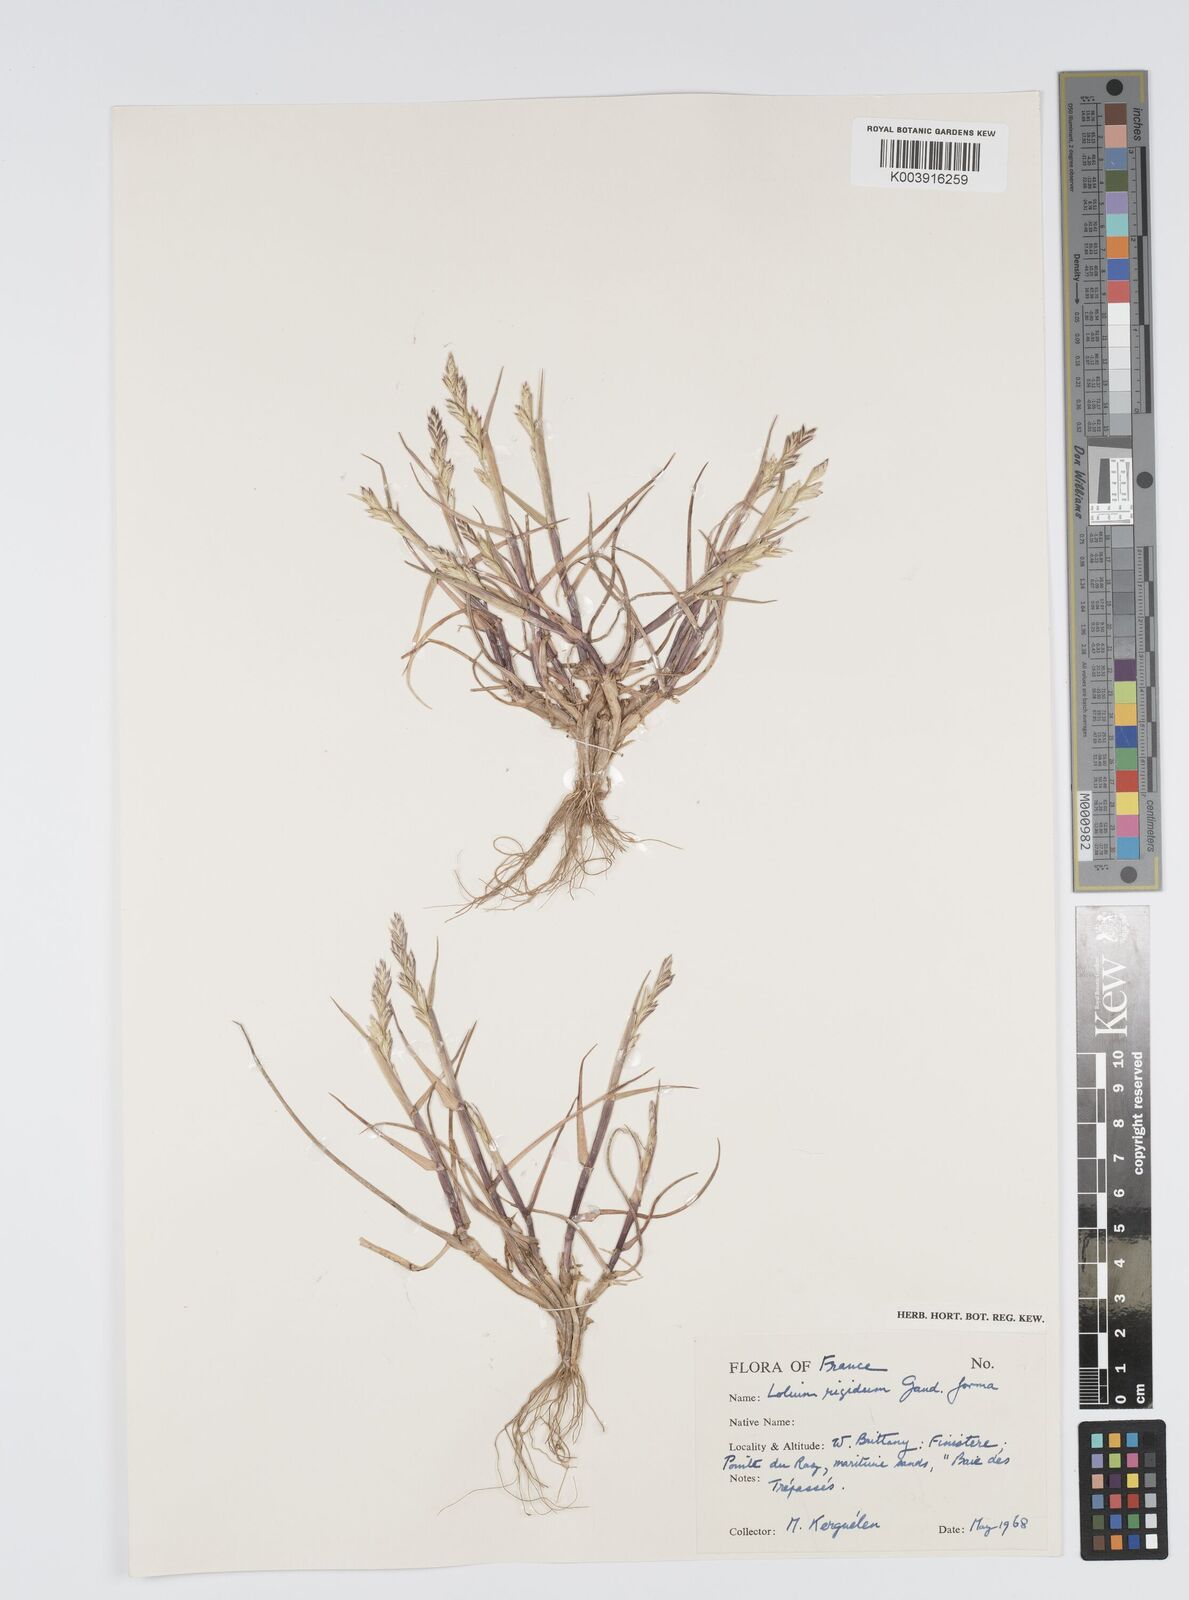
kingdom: Plantae
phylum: Tracheophyta
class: Liliopsida
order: Poales
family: Poaceae
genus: Lolium
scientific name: Lolium rigidum
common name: Wimmera ryegrass
